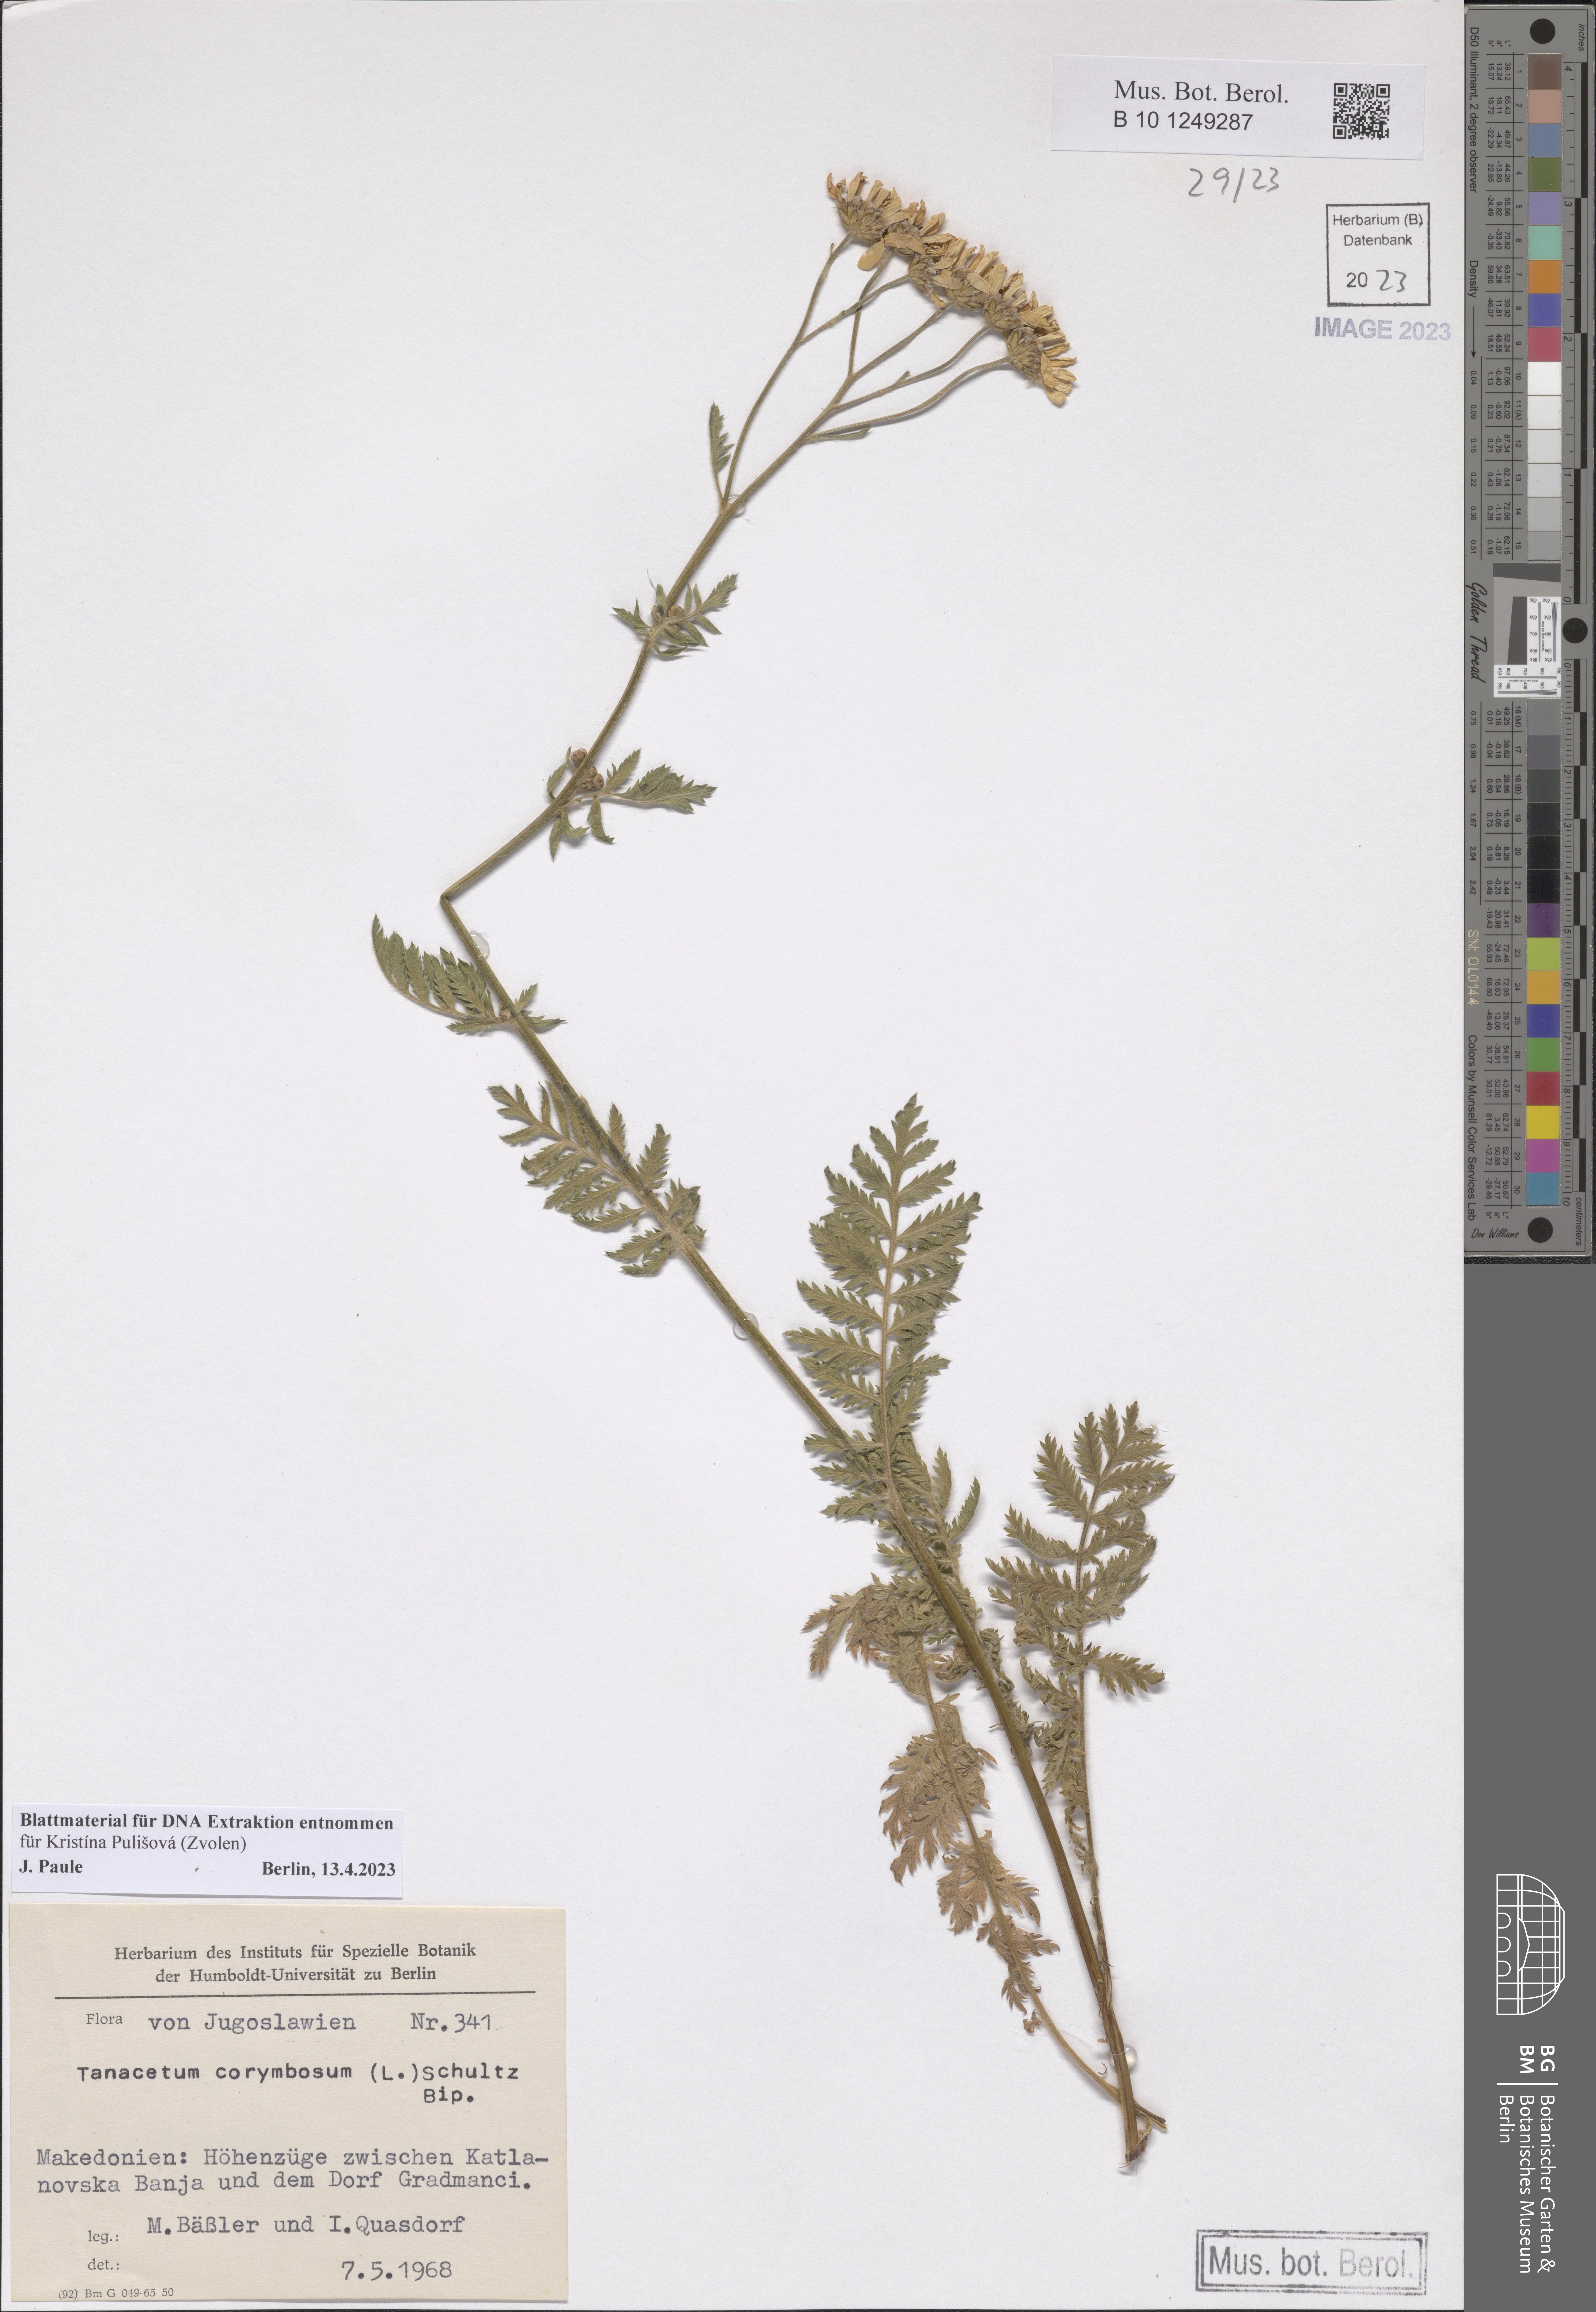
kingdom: Plantae
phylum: Tracheophyta
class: Magnoliopsida
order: Asterales
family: Asteraceae
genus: Tanacetum
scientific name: Tanacetum corymbosum
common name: Scentless feverfew
